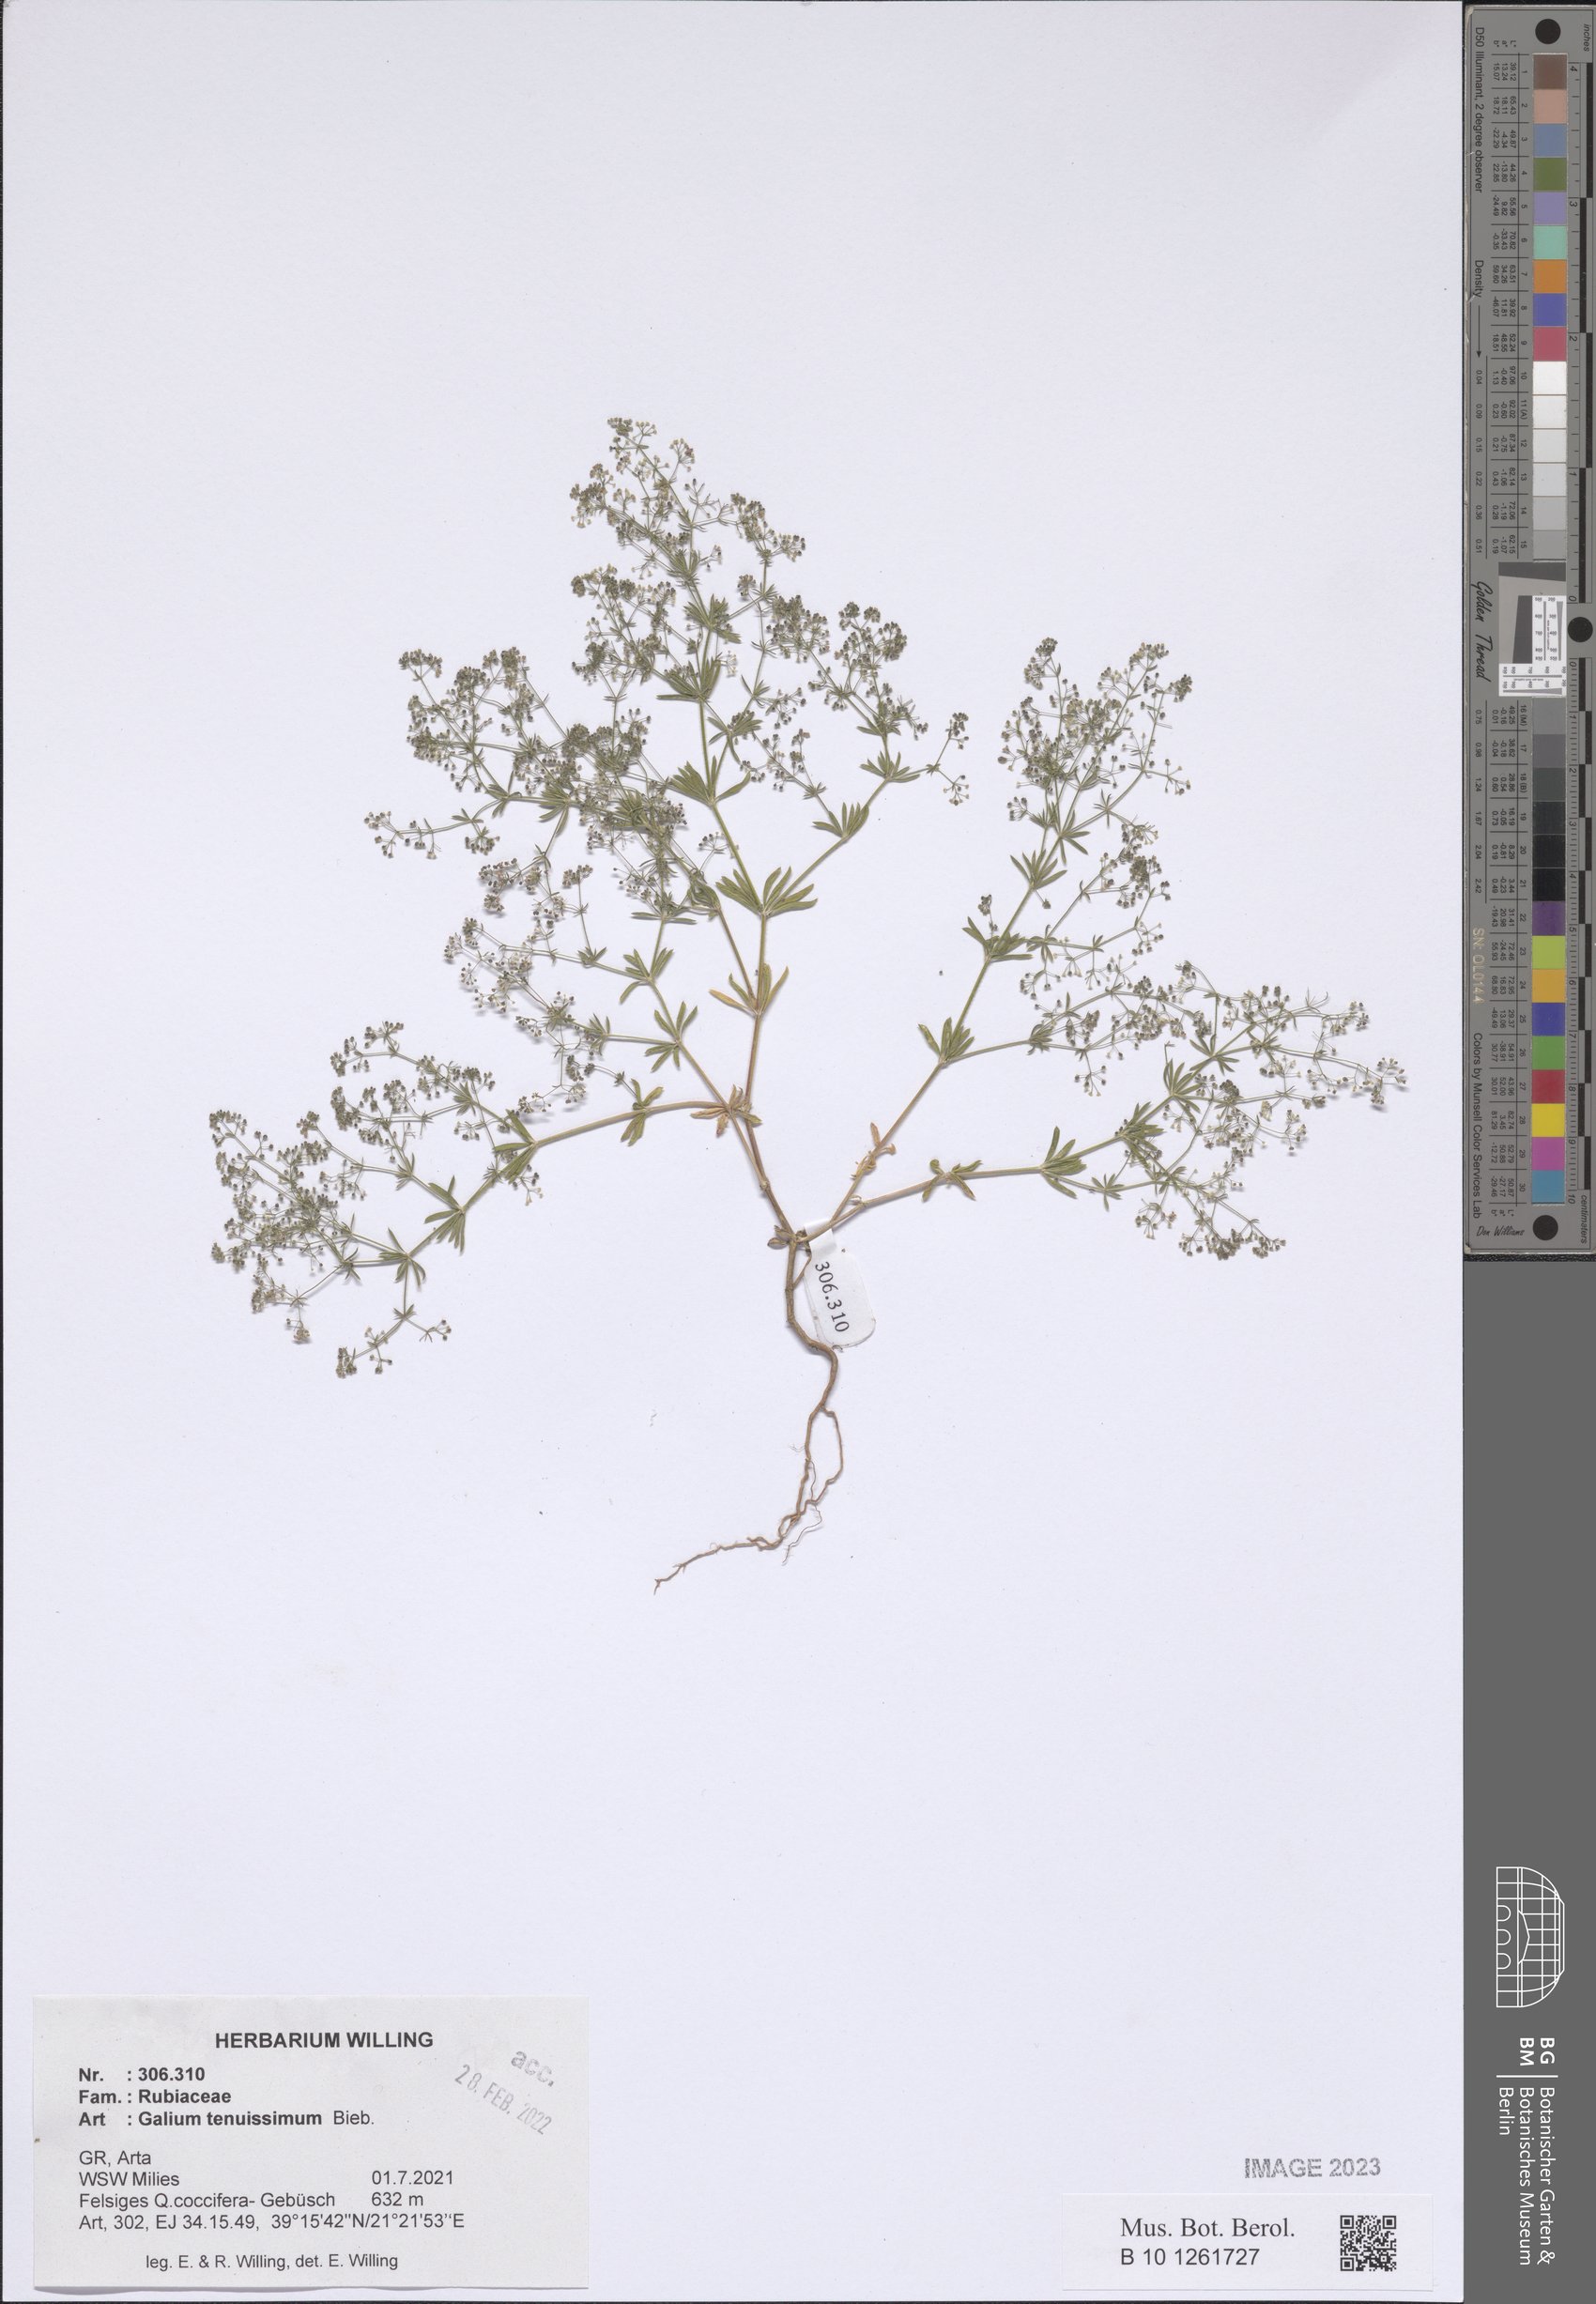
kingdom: Plantae
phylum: Tracheophyta
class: Magnoliopsida
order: Gentianales
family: Rubiaceae
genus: Galium
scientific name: Galium tenuissimum
